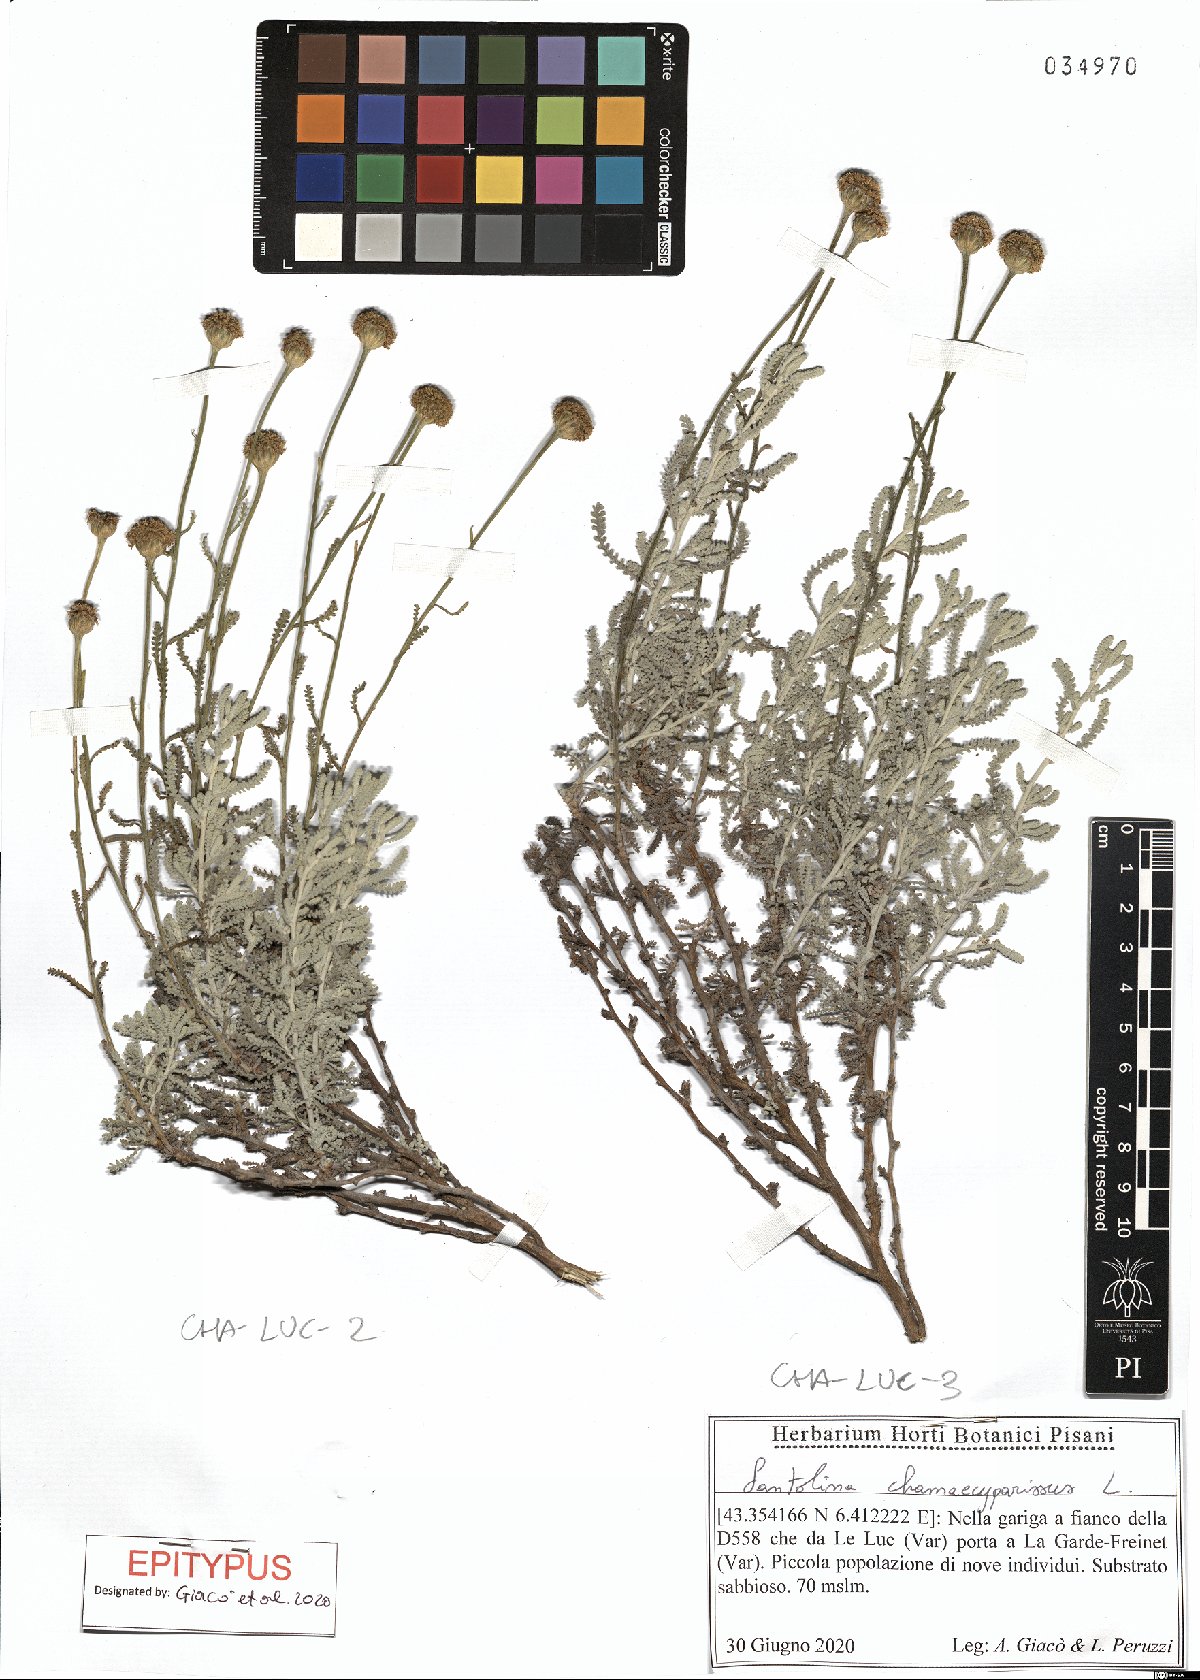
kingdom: Plantae
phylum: Tracheophyta
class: Magnoliopsida
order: Asterales
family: Asteraceae
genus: Santolina
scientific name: Santolina chamaecyparissus
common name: Lavender-cotton
